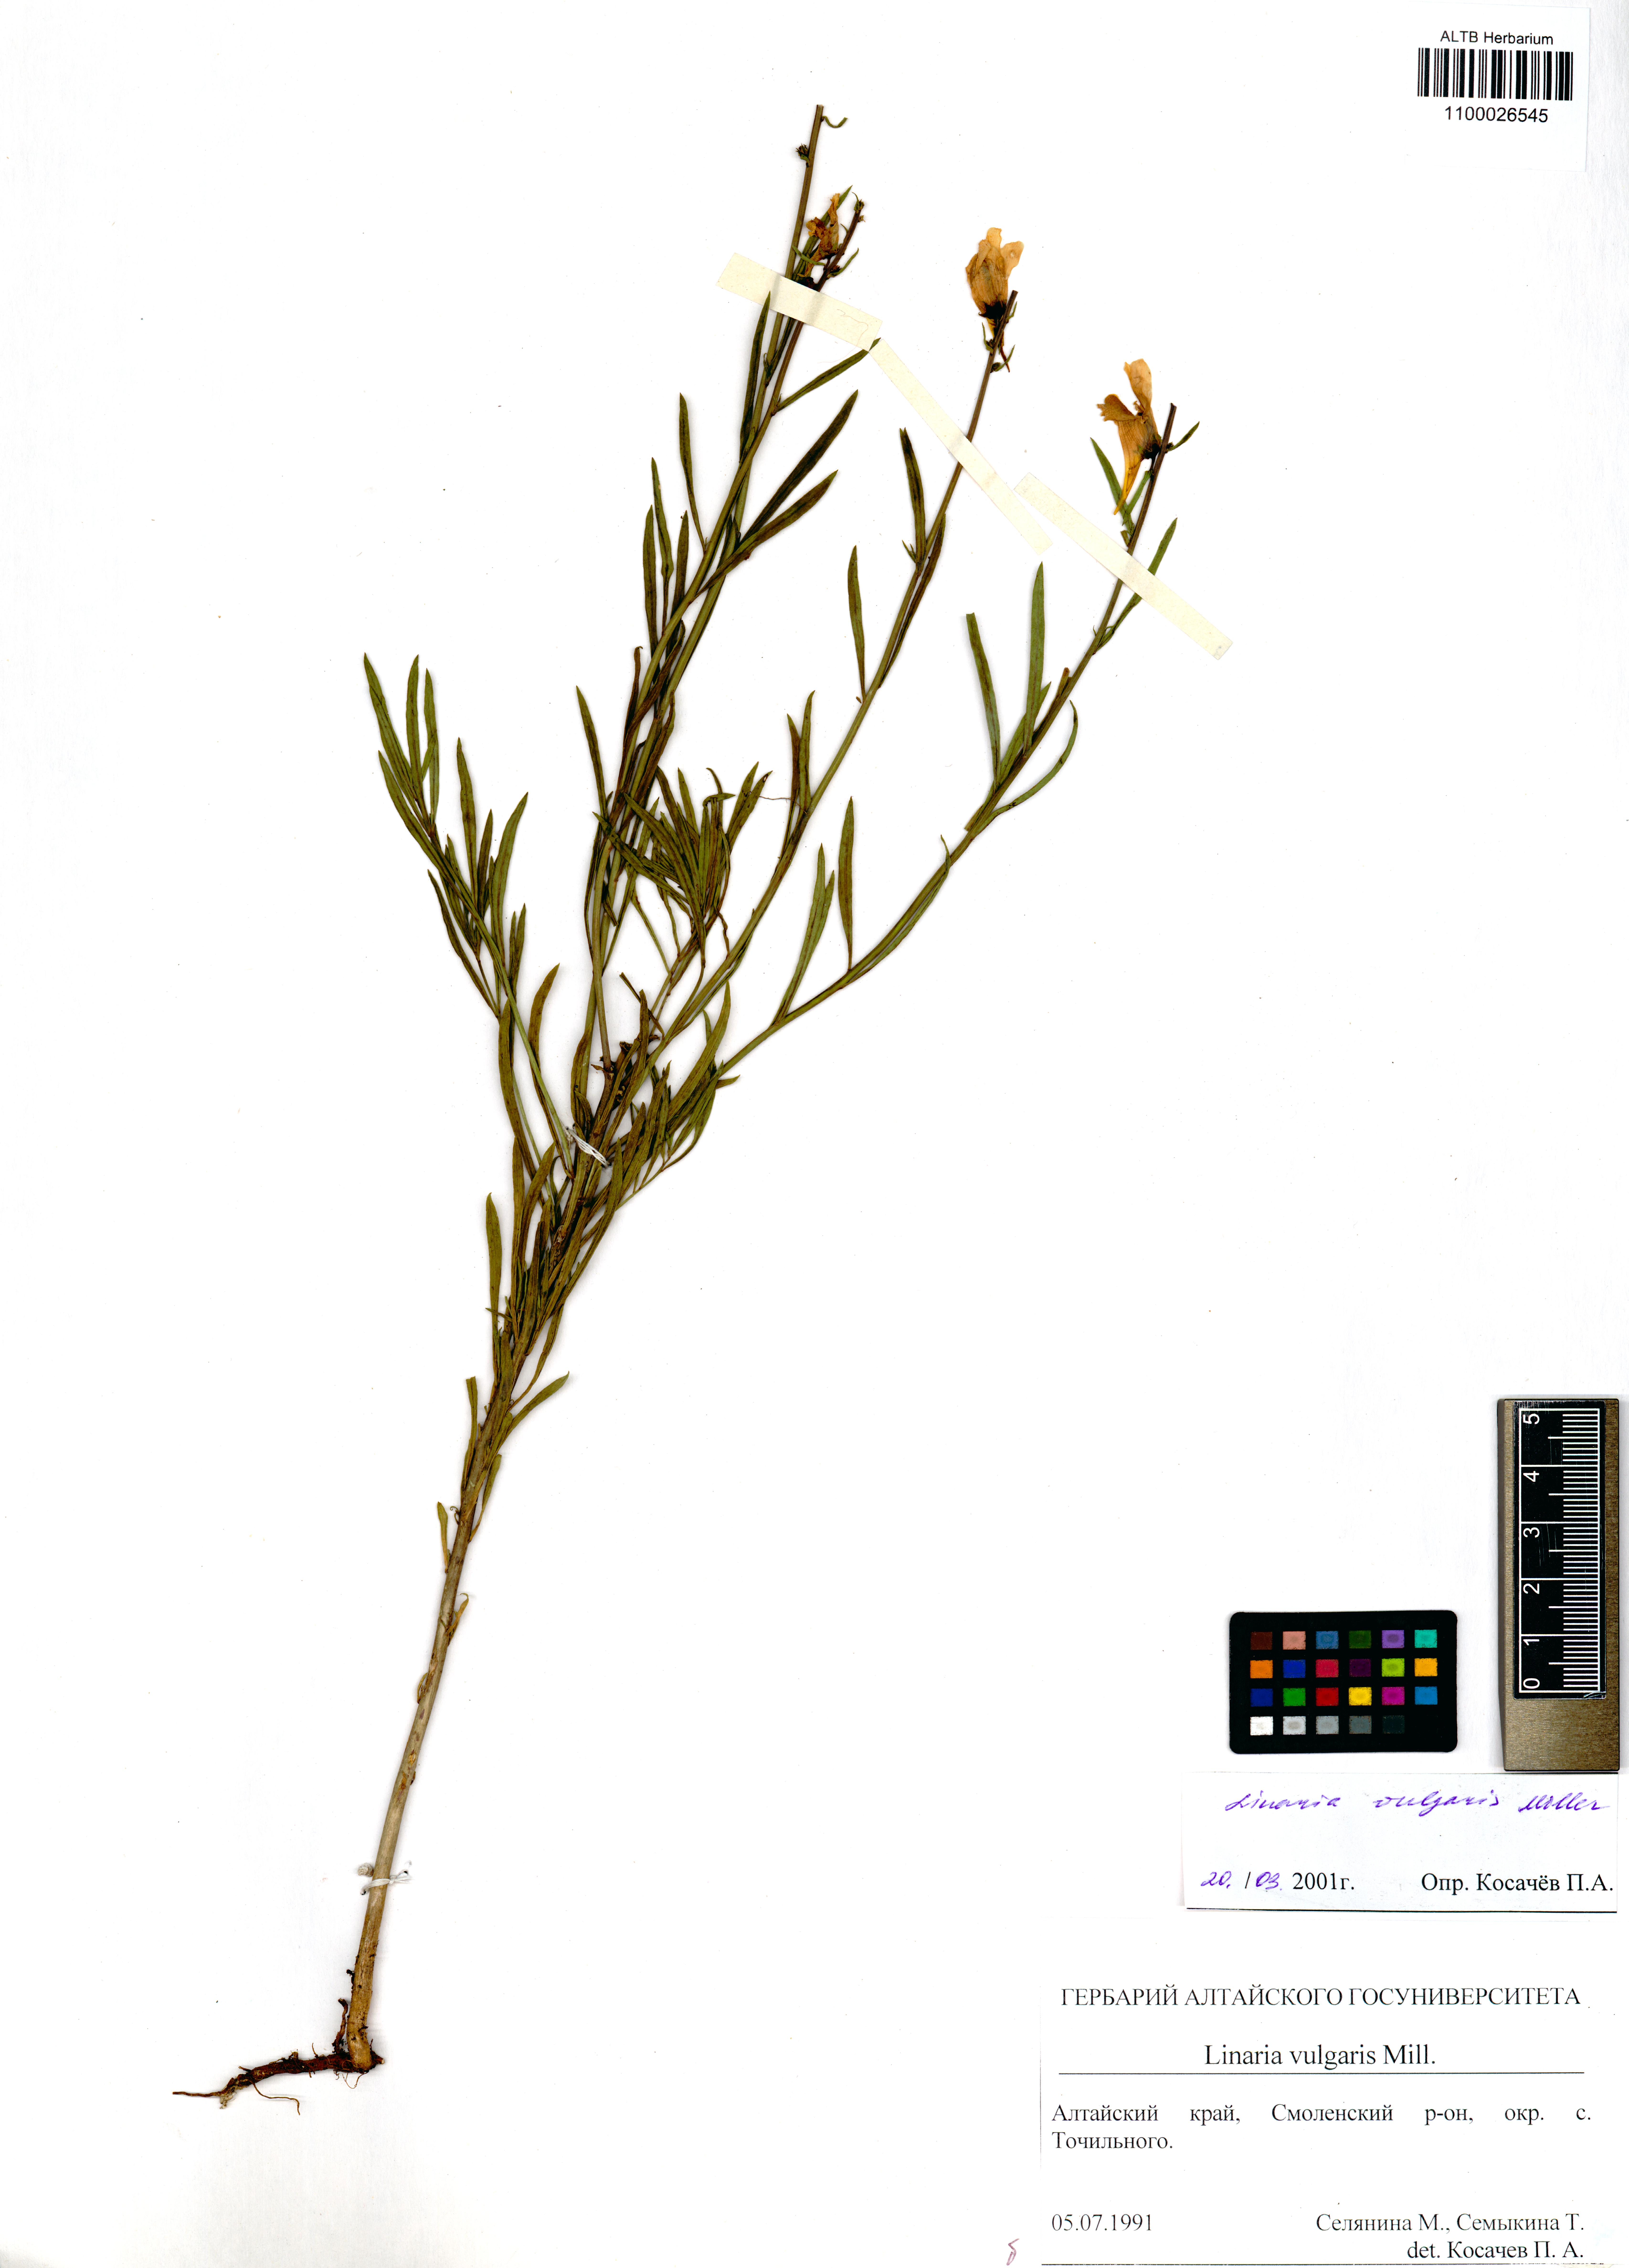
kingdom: Plantae
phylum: Tracheophyta
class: Magnoliopsida
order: Lamiales
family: Plantaginaceae
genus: Linaria
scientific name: Linaria vulgaris
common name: Butter and eggs
